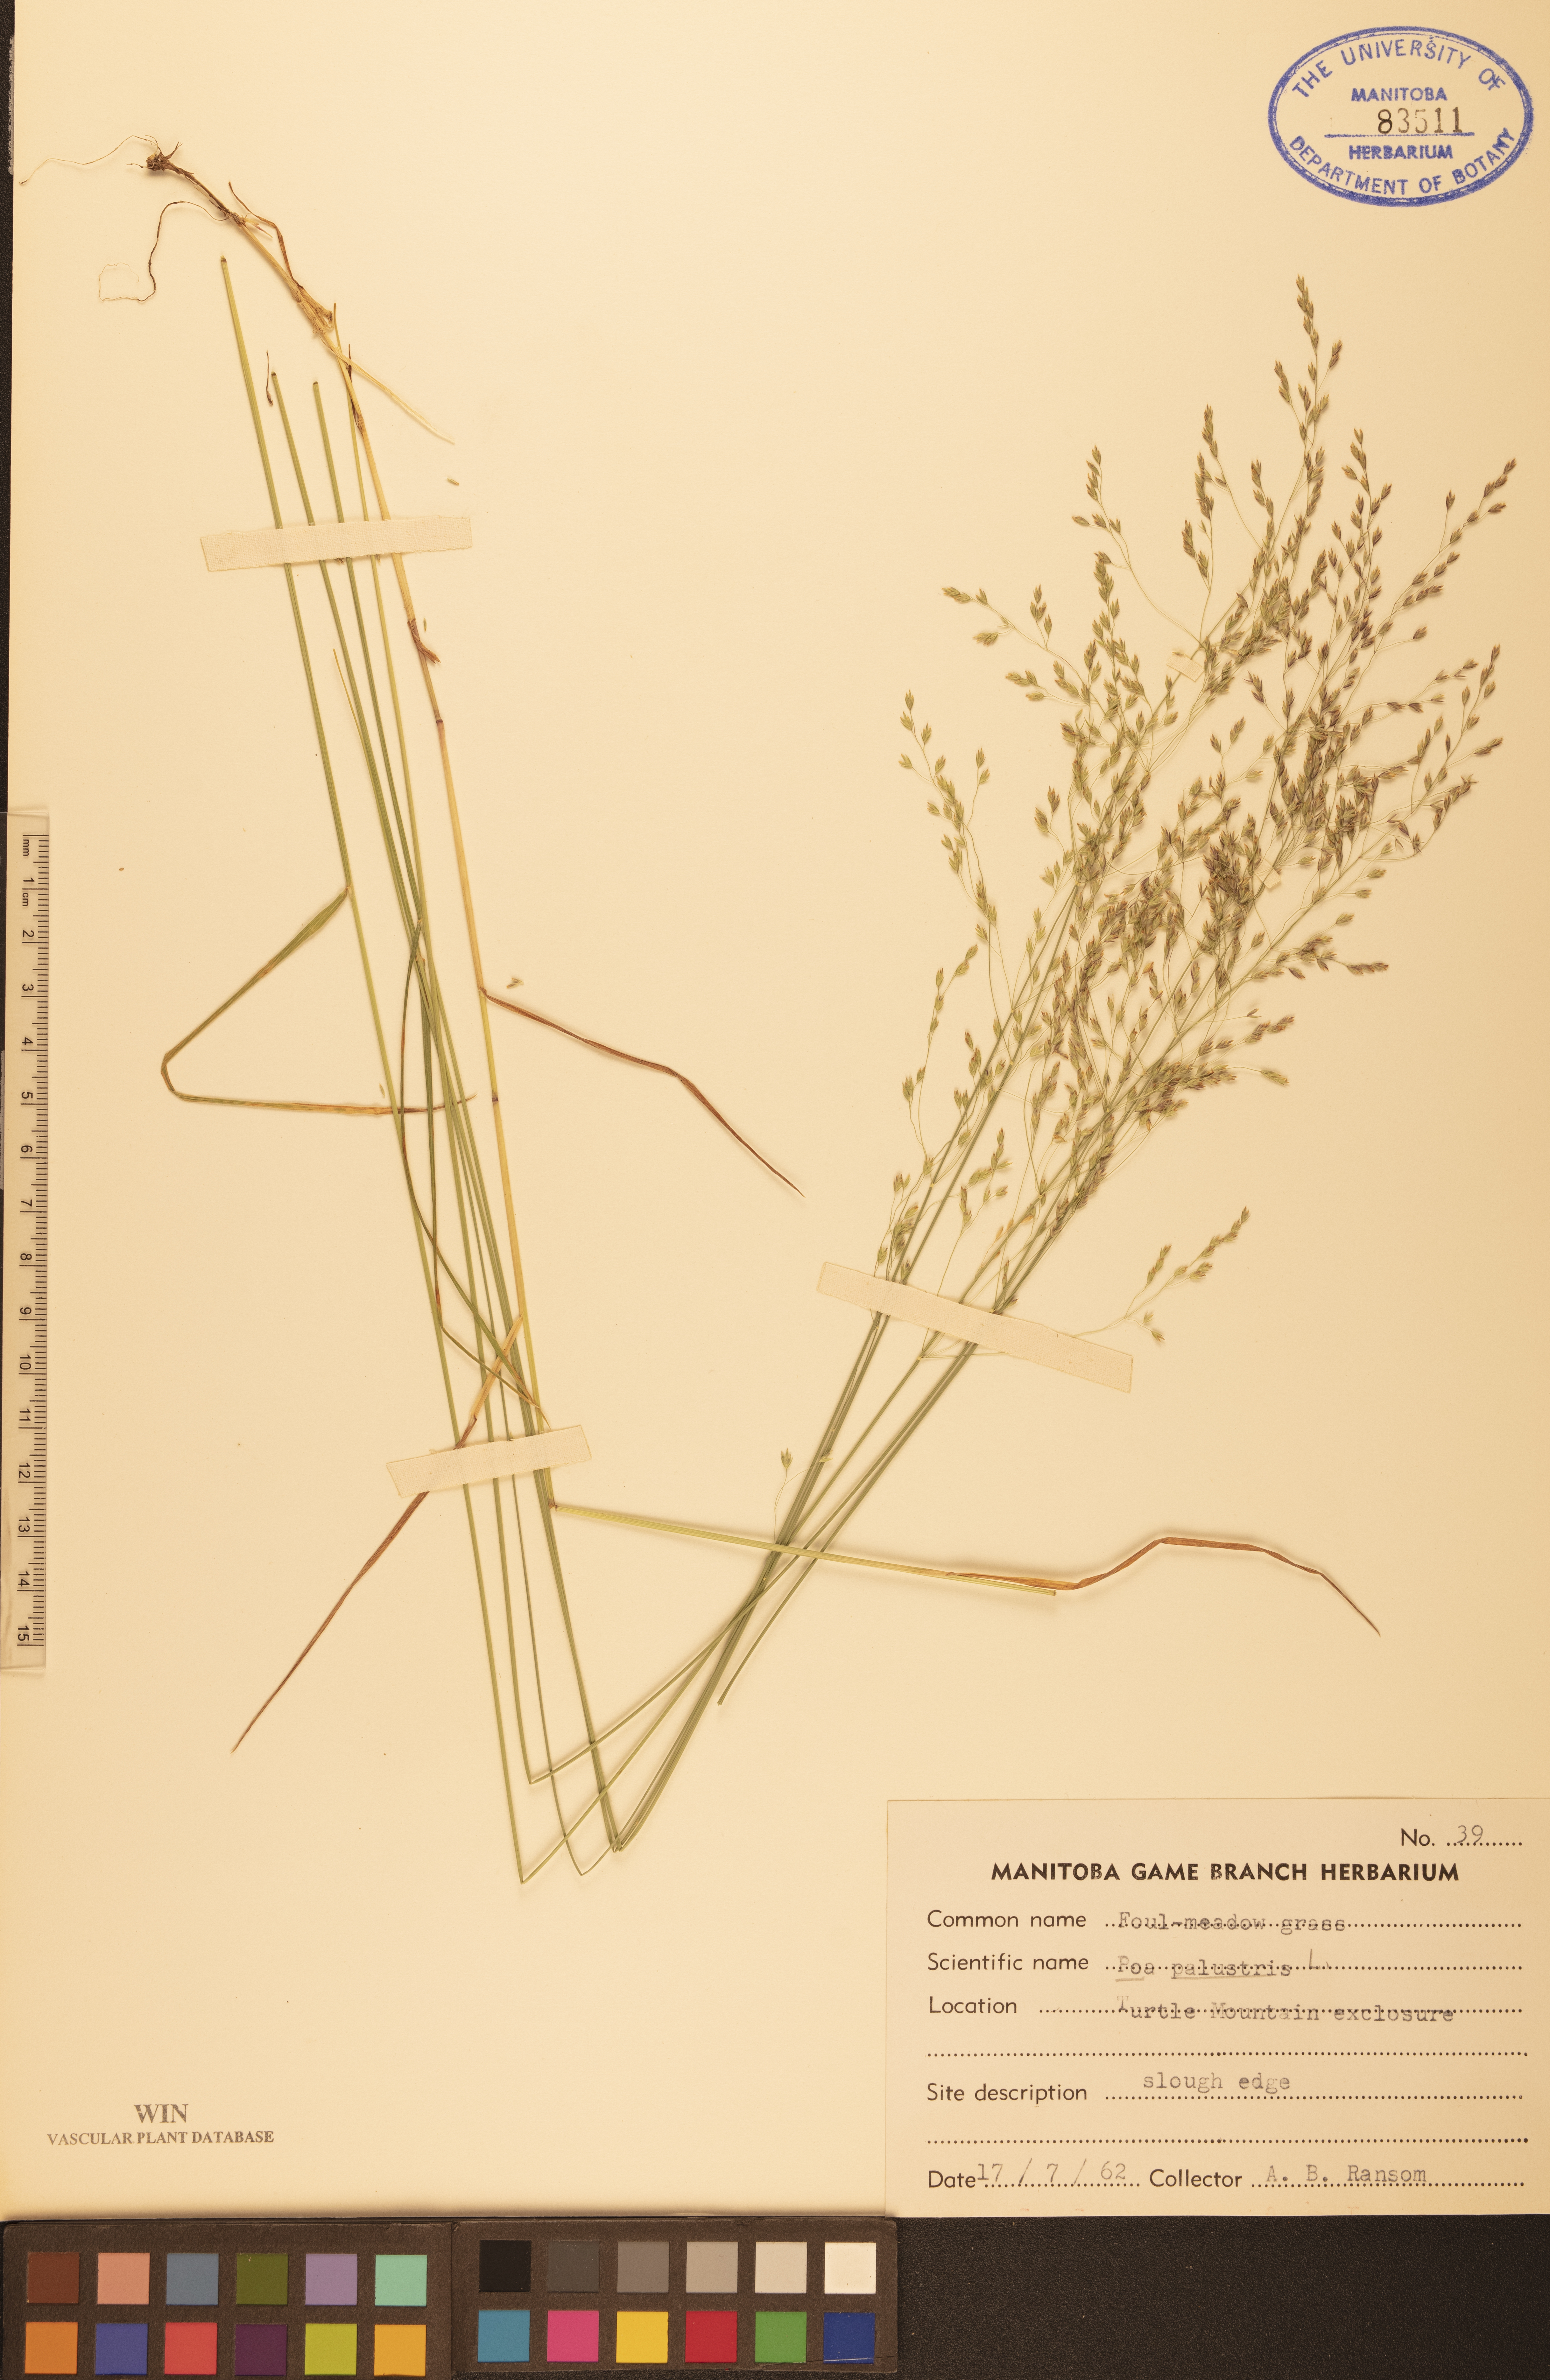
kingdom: Plantae
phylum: Tracheophyta
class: Liliopsida
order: Poales
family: Poaceae
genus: Poa
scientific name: Poa palustris
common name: Swamp meadow-grass
